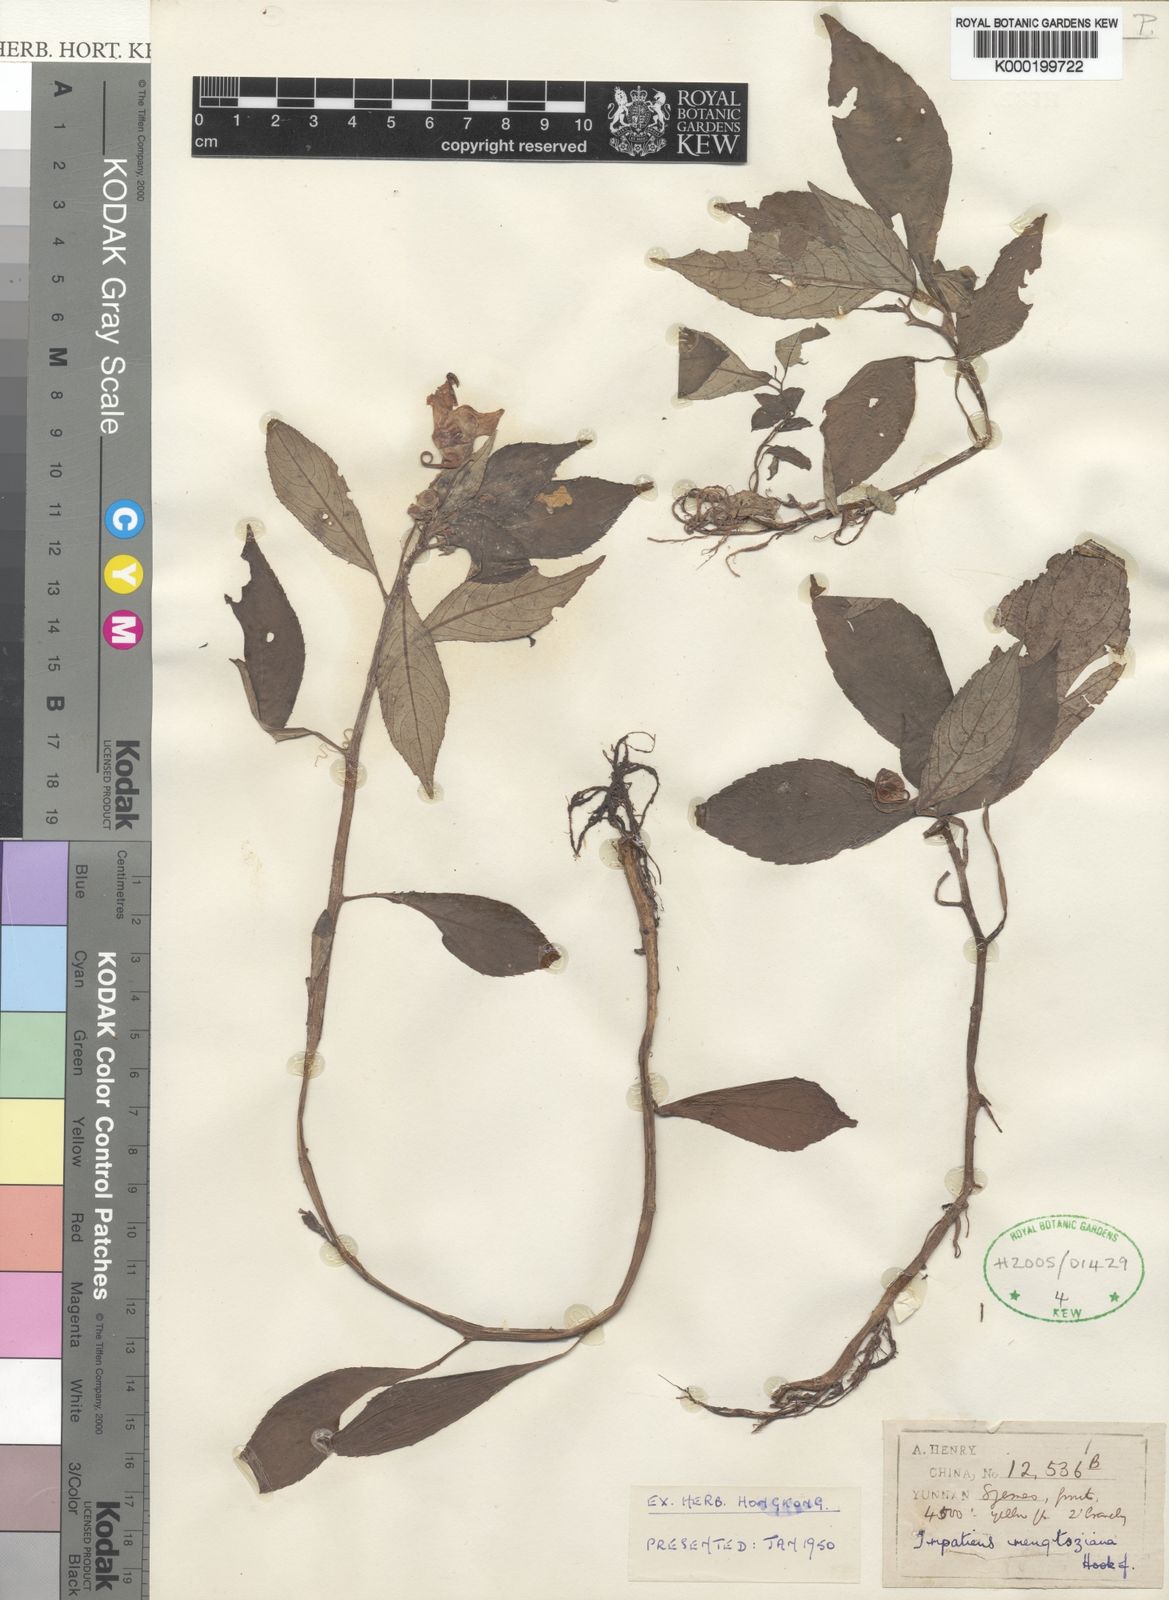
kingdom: Plantae
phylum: Tracheophyta
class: Magnoliopsida
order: Ericales
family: Balsaminaceae
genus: Impatiens
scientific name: Impatiens pulchra
